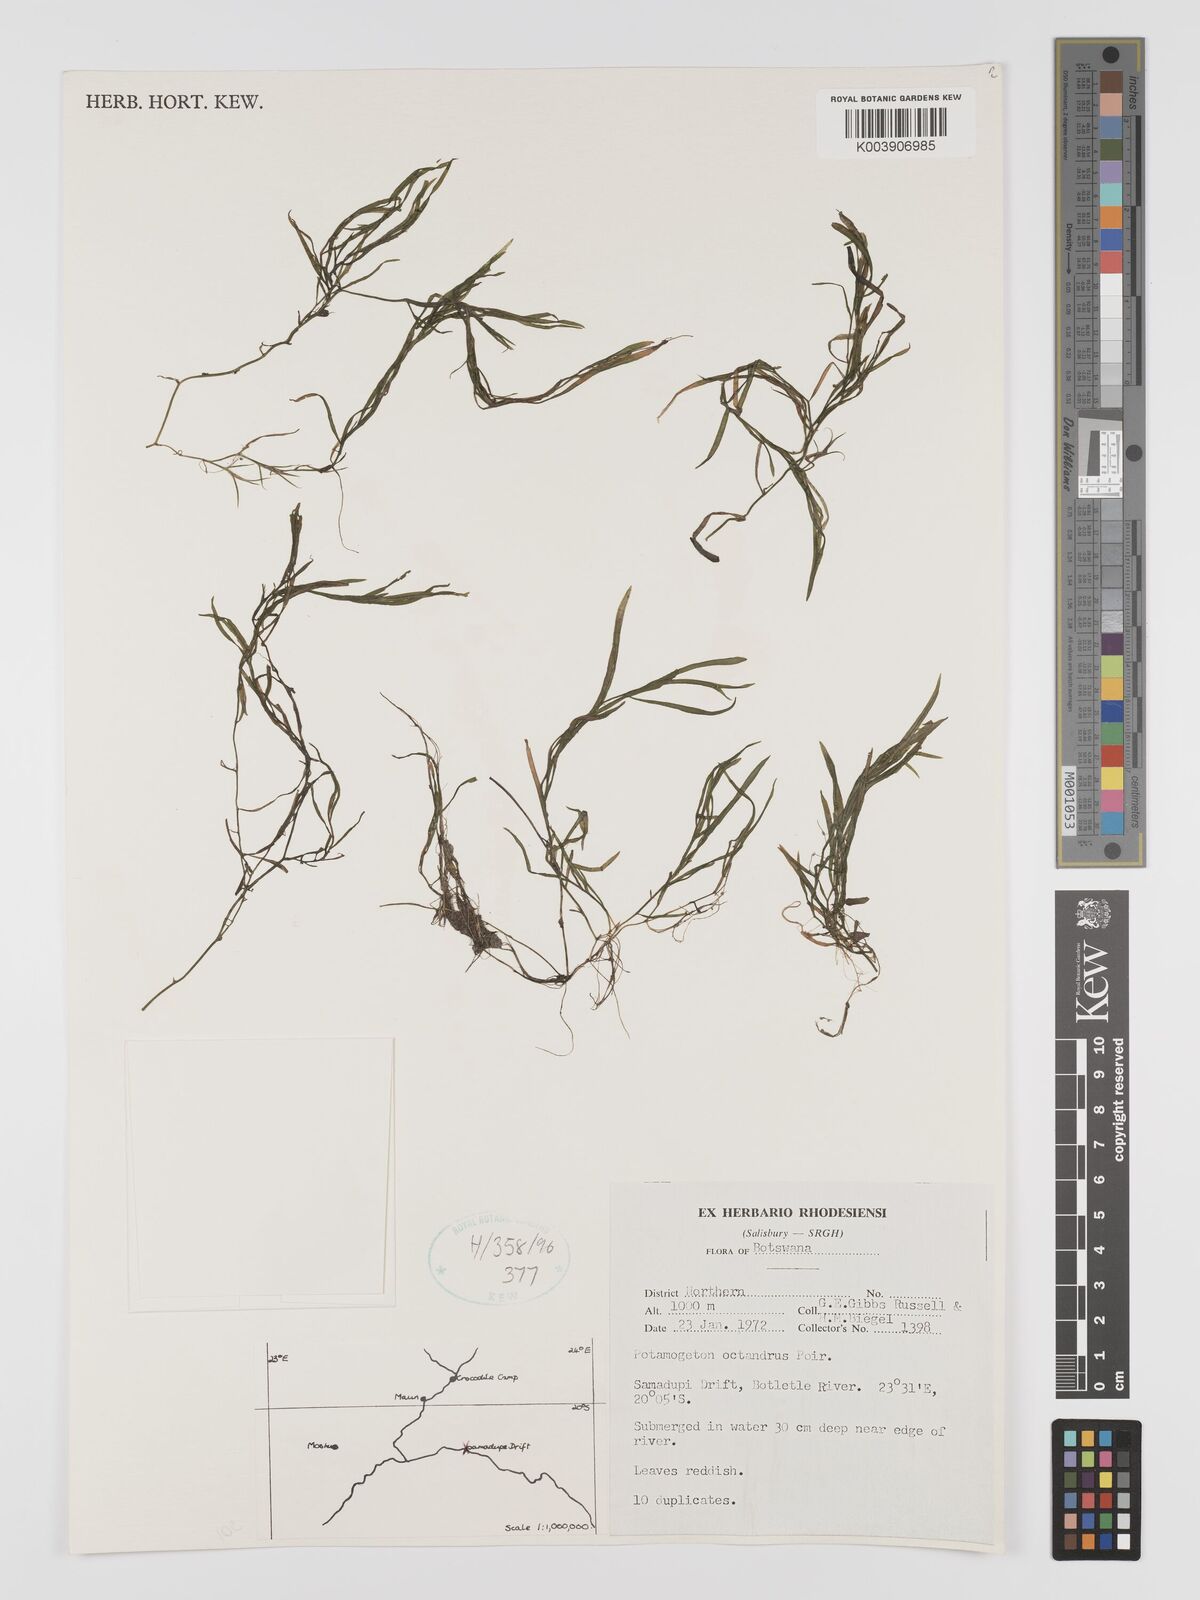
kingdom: Plantae
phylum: Tracheophyta
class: Liliopsida
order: Alismatales
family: Potamogetonaceae
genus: Potamogeton
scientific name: Potamogeton octandrus
